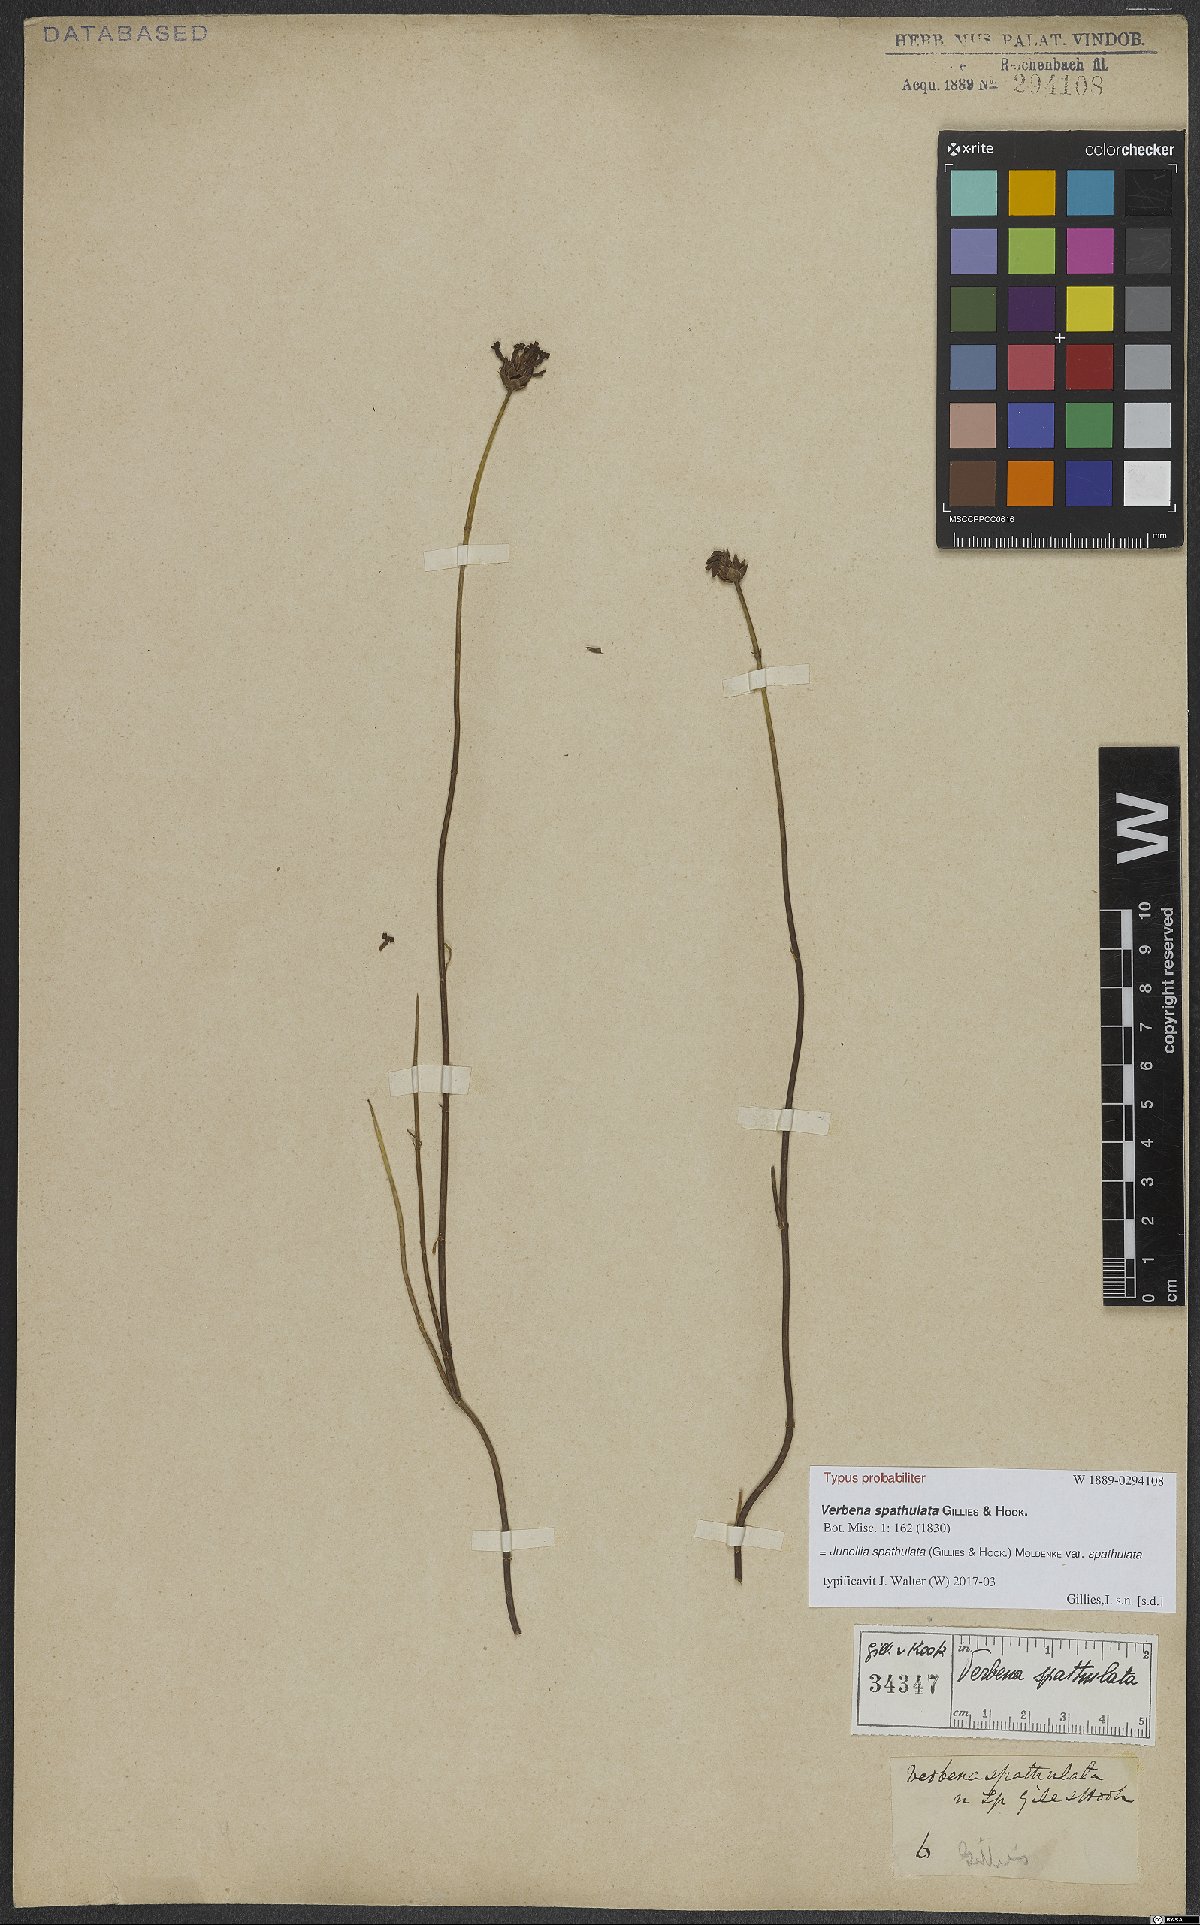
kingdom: Plantae
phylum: Tracheophyta
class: Magnoliopsida
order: Lamiales
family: Verbenaceae
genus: Junellia
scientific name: Junellia spathulata
